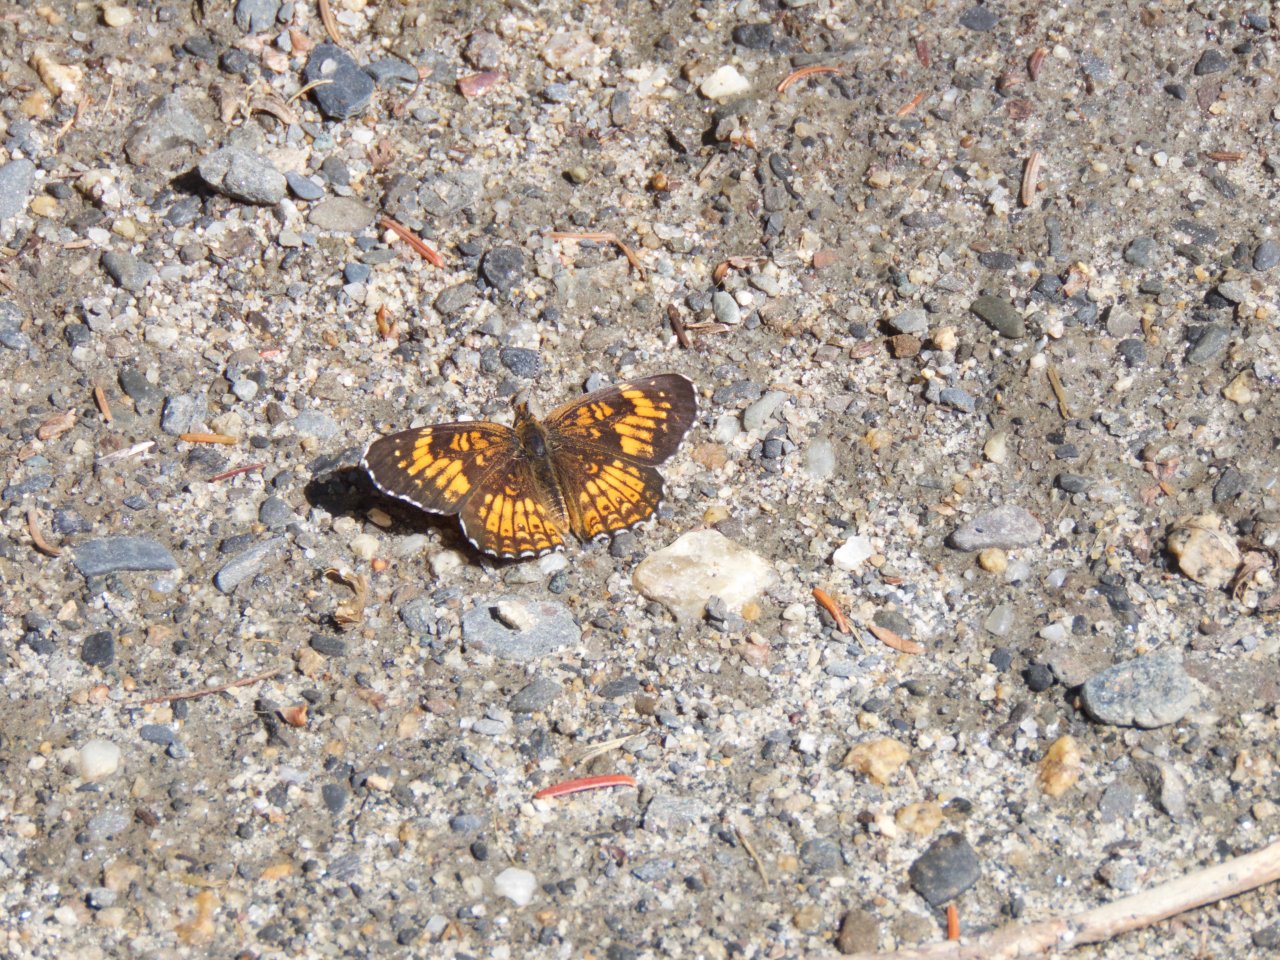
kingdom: Animalia
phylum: Arthropoda
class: Insecta
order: Lepidoptera
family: Nymphalidae
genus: Phyciodes
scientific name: Phyciodes tharos
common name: Northern Crescent
